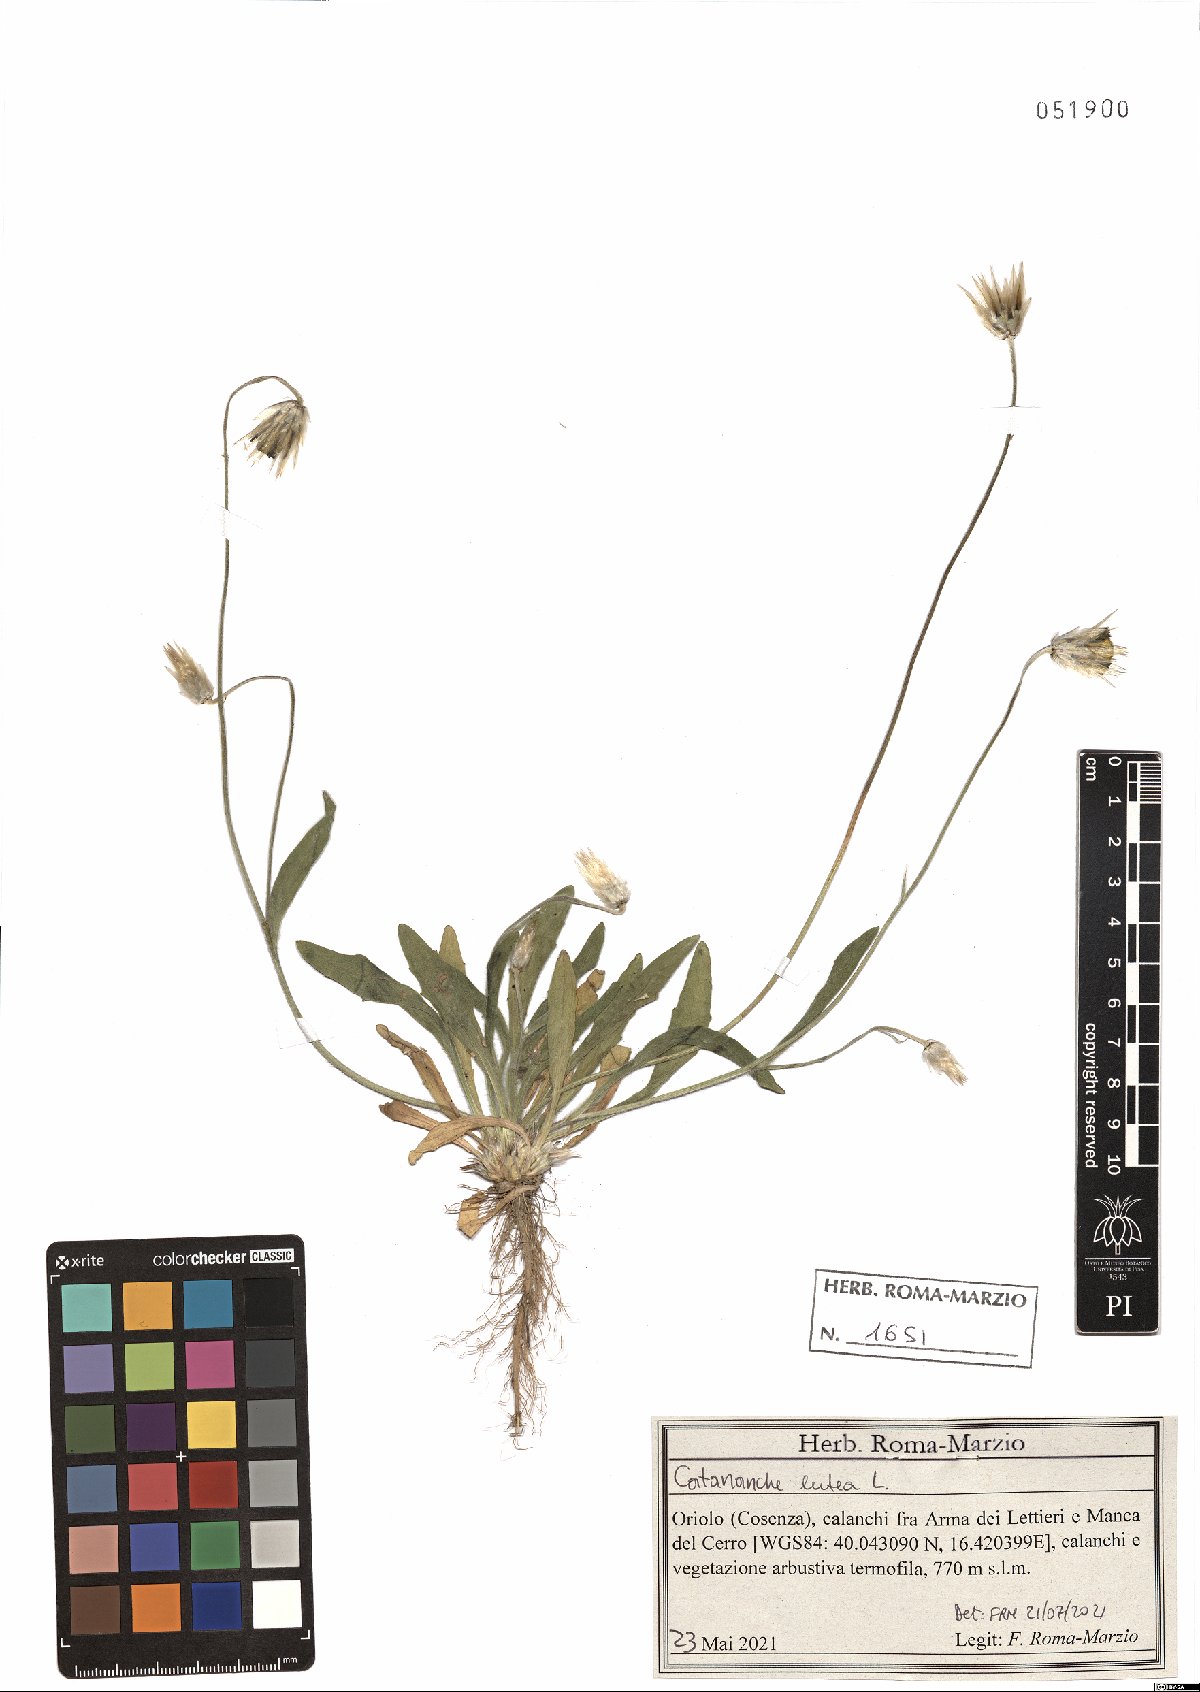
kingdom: Plantae
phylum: Tracheophyta
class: Magnoliopsida
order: Asterales
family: Asteraceae
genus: Catananche
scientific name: Catananche lutea
